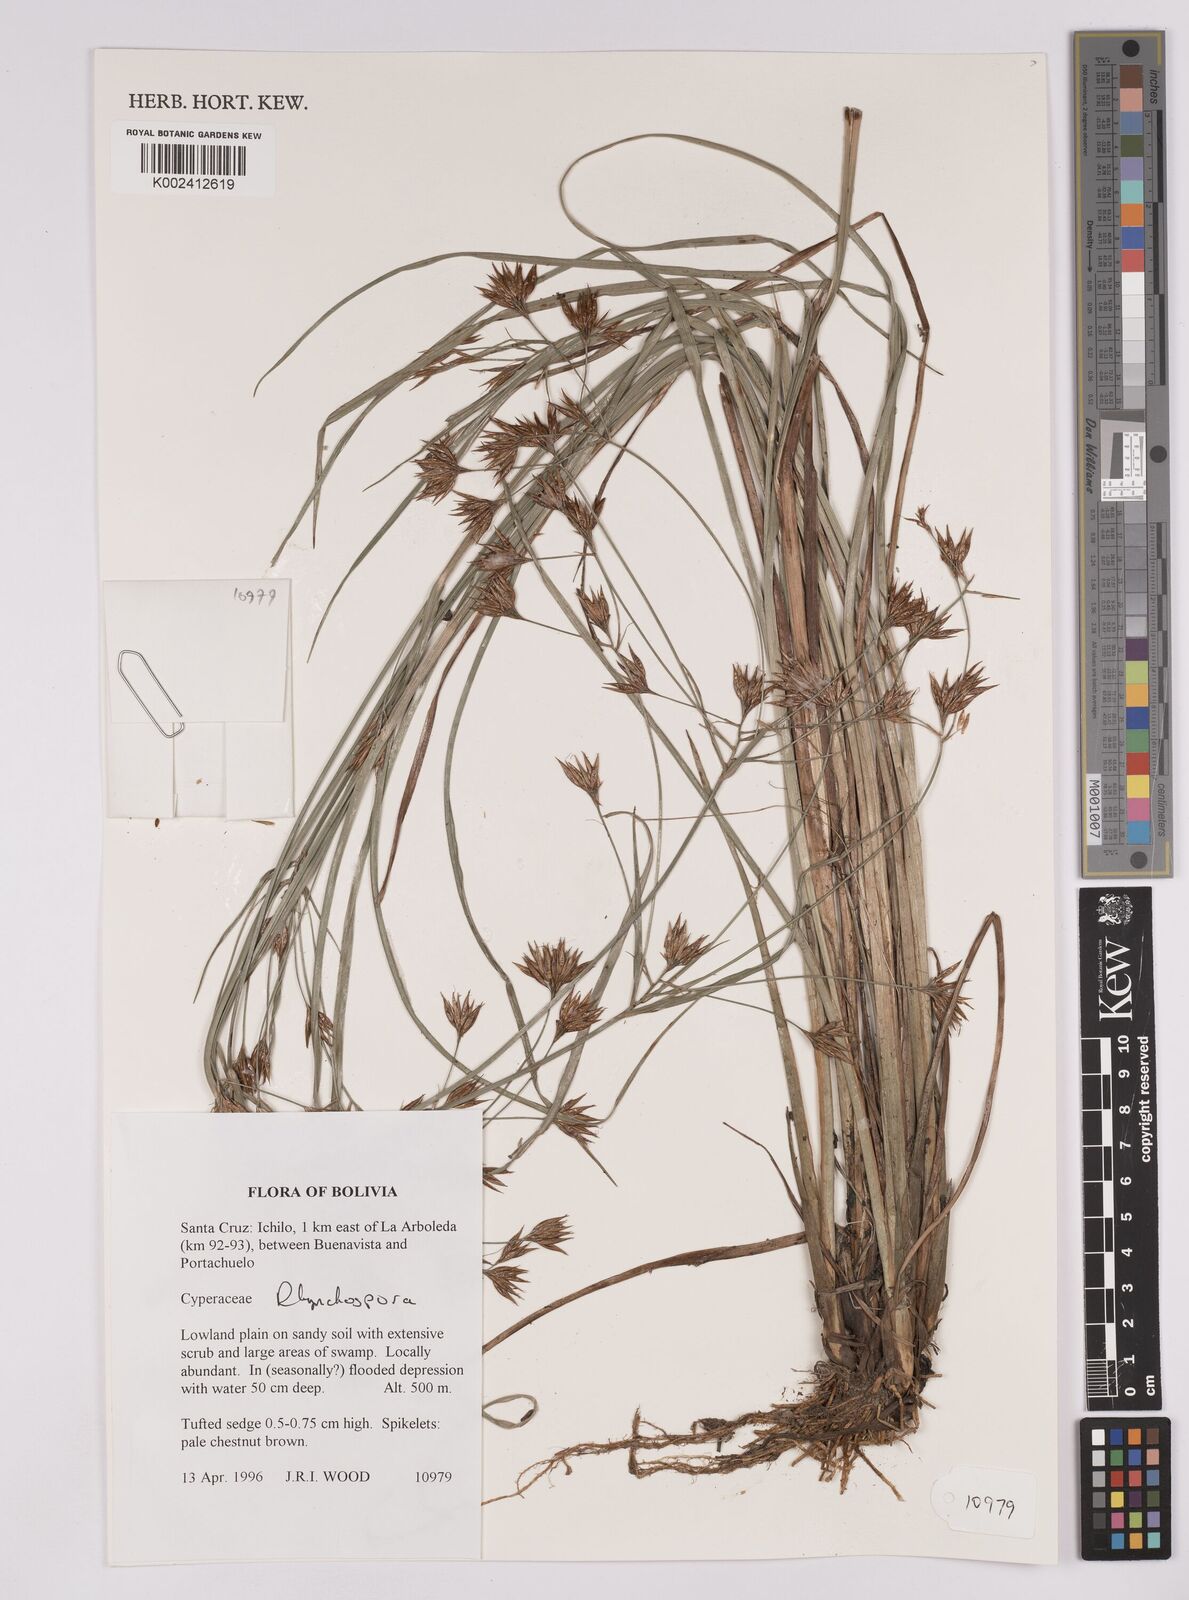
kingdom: Plantae
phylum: Tracheophyta
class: Liliopsida
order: Poales
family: Cyperaceae
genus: Rhynchospora
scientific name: Rhynchospora
